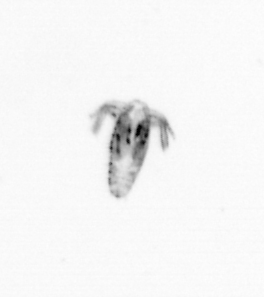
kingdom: Animalia
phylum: Arthropoda
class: Copepoda
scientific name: Copepoda
